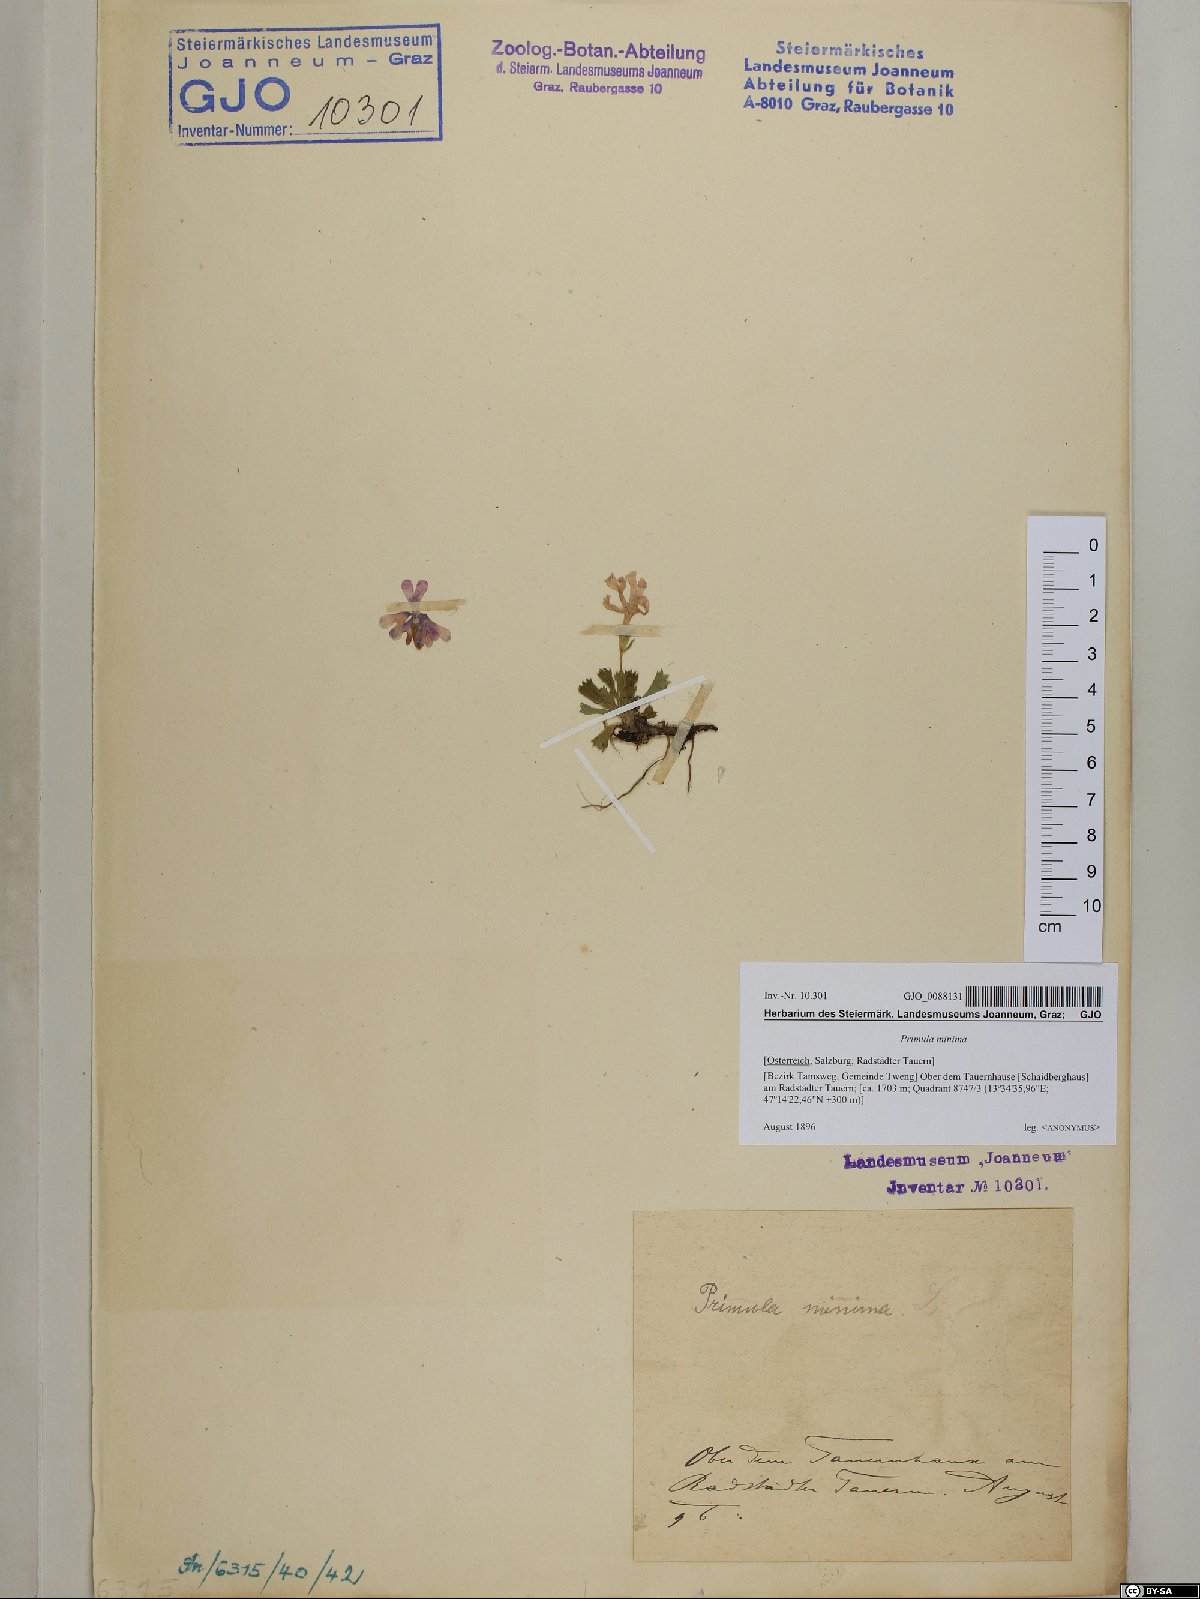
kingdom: Plantae
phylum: Tracheophyta
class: Magnoliopsida
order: Ericales
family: Primulaceae
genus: Primula
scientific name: Primula minima
